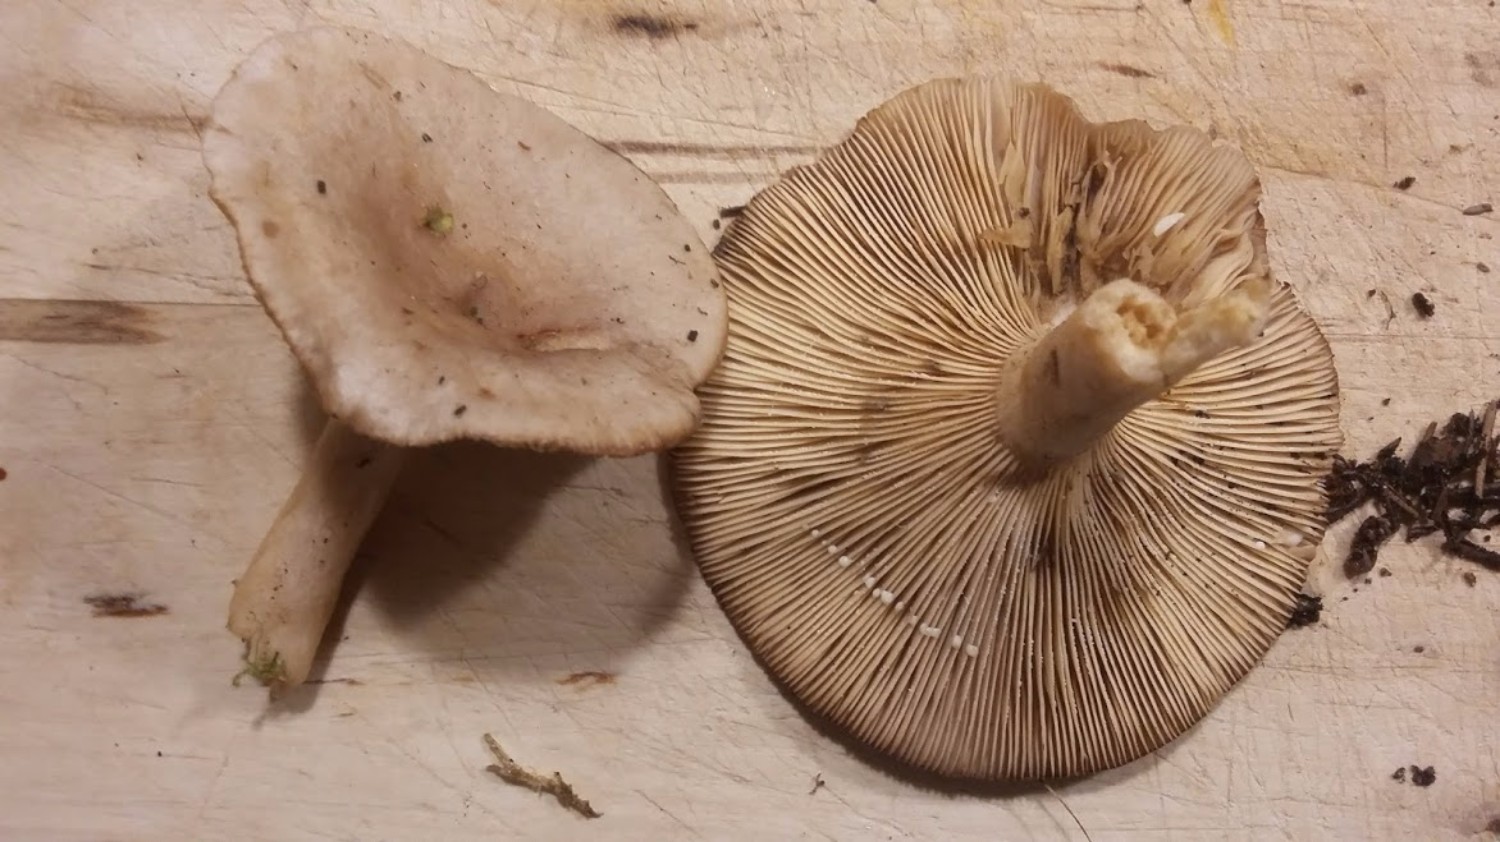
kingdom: Fungi
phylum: Basidiomycota
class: Agaricomycetes
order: Russulales
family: Russulaceae
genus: Lactarius
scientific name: Lactarius vietus
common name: violetgrå mælkehat
